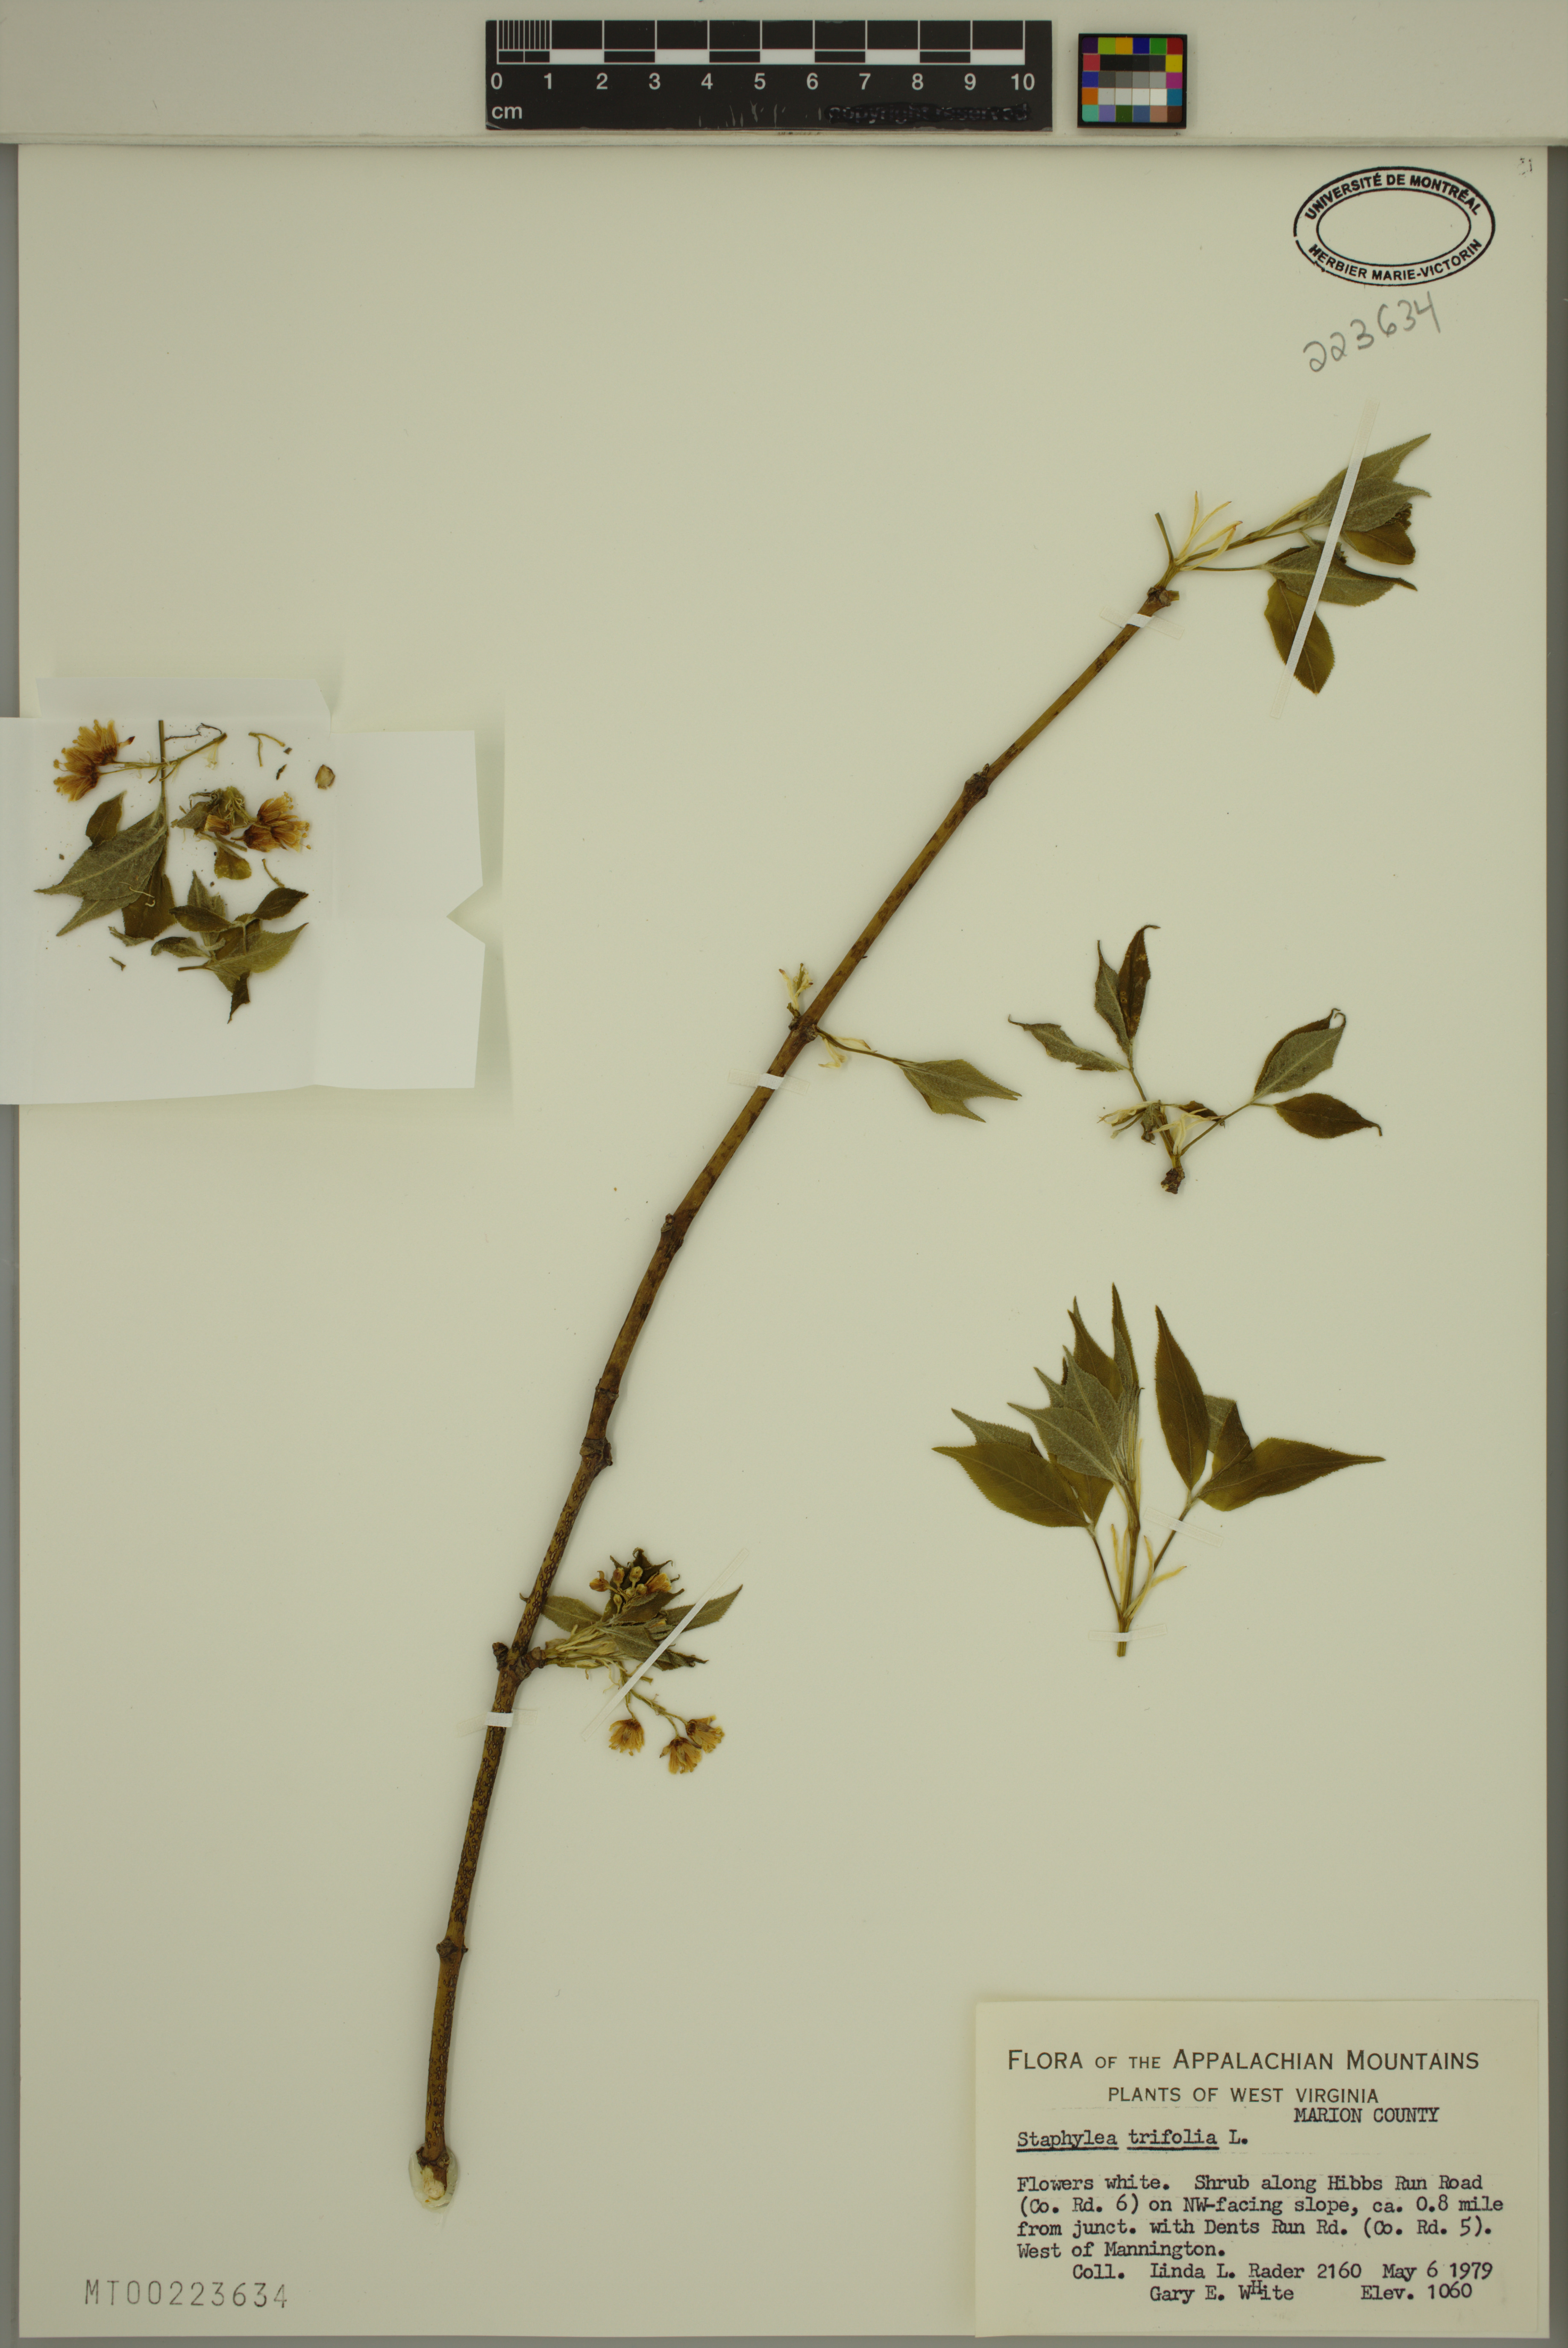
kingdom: Plantae
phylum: Tracheophyta
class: Magnoliopsida
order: Crossosomatales
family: Staphyleaceae
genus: Staphylea
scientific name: Staphylea trifolia
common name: American bladdernut
